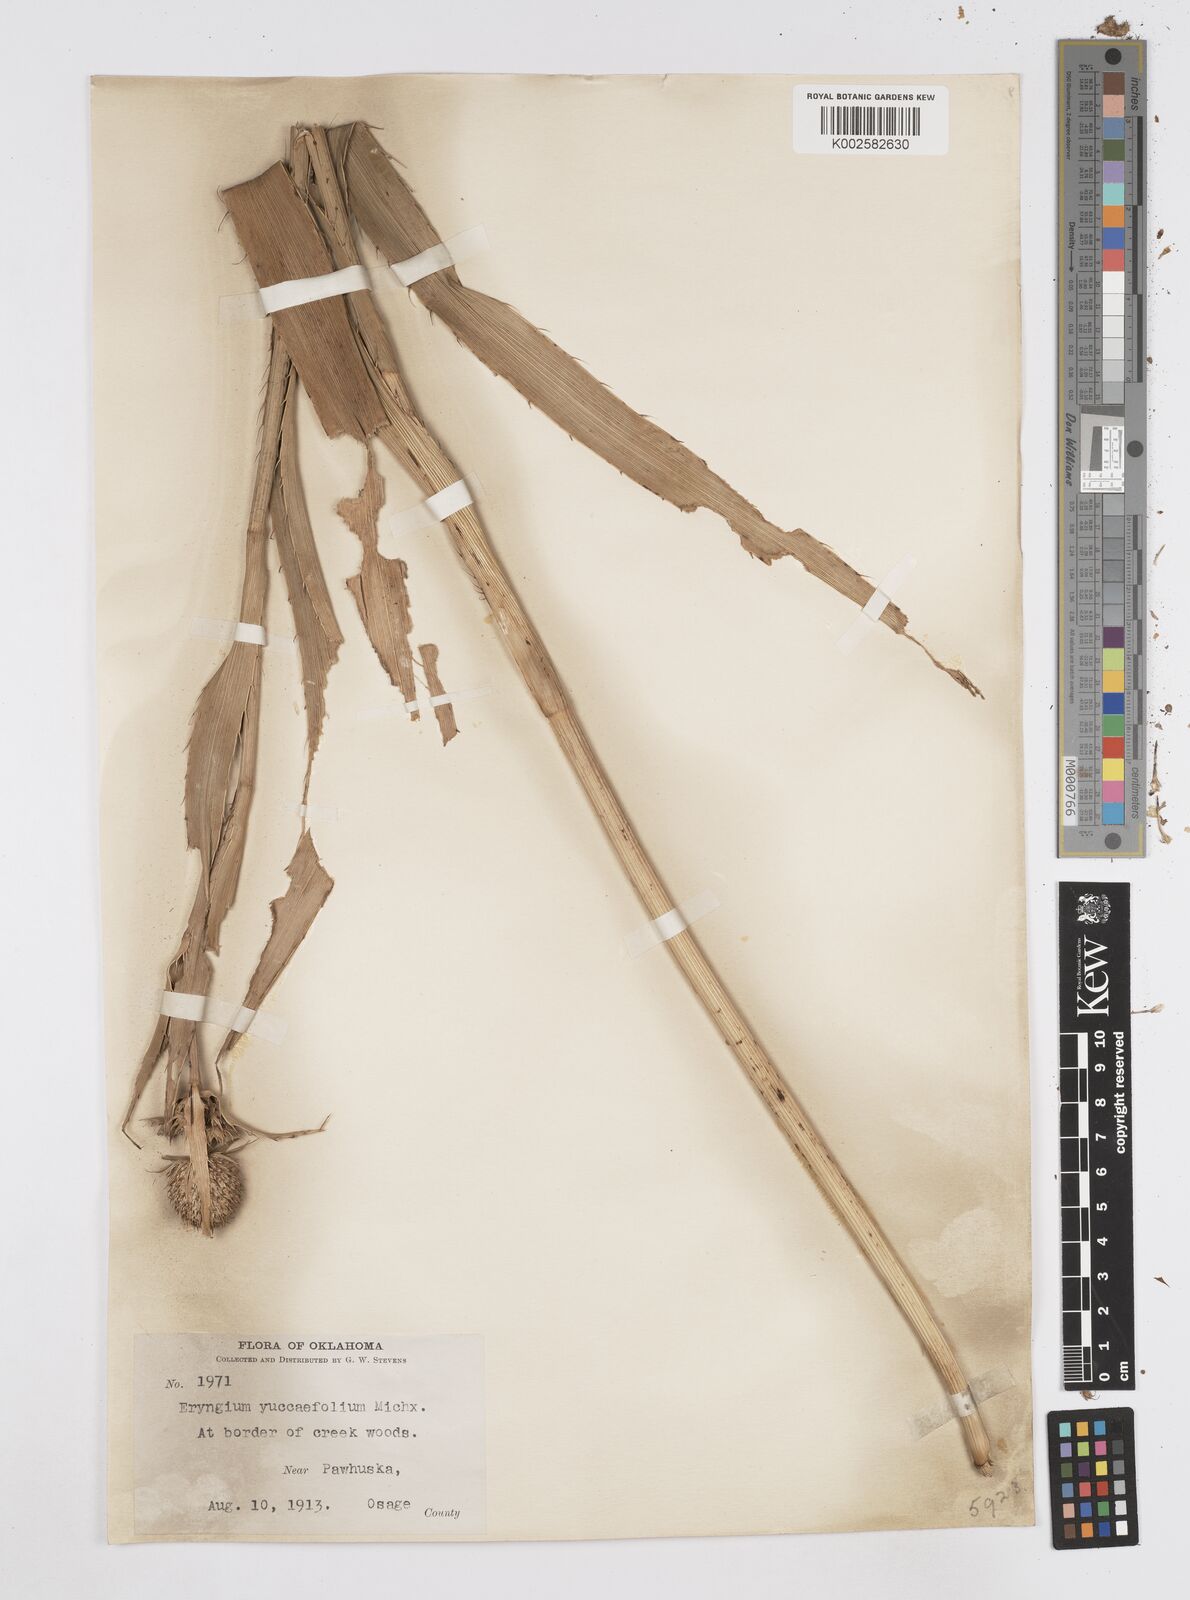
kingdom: Plantae
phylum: Tracheophyta
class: Magnoliopsida
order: Apiales
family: Apiaceae
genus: Eryngium
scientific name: Eryngium yuccifolium
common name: Button eryngo
